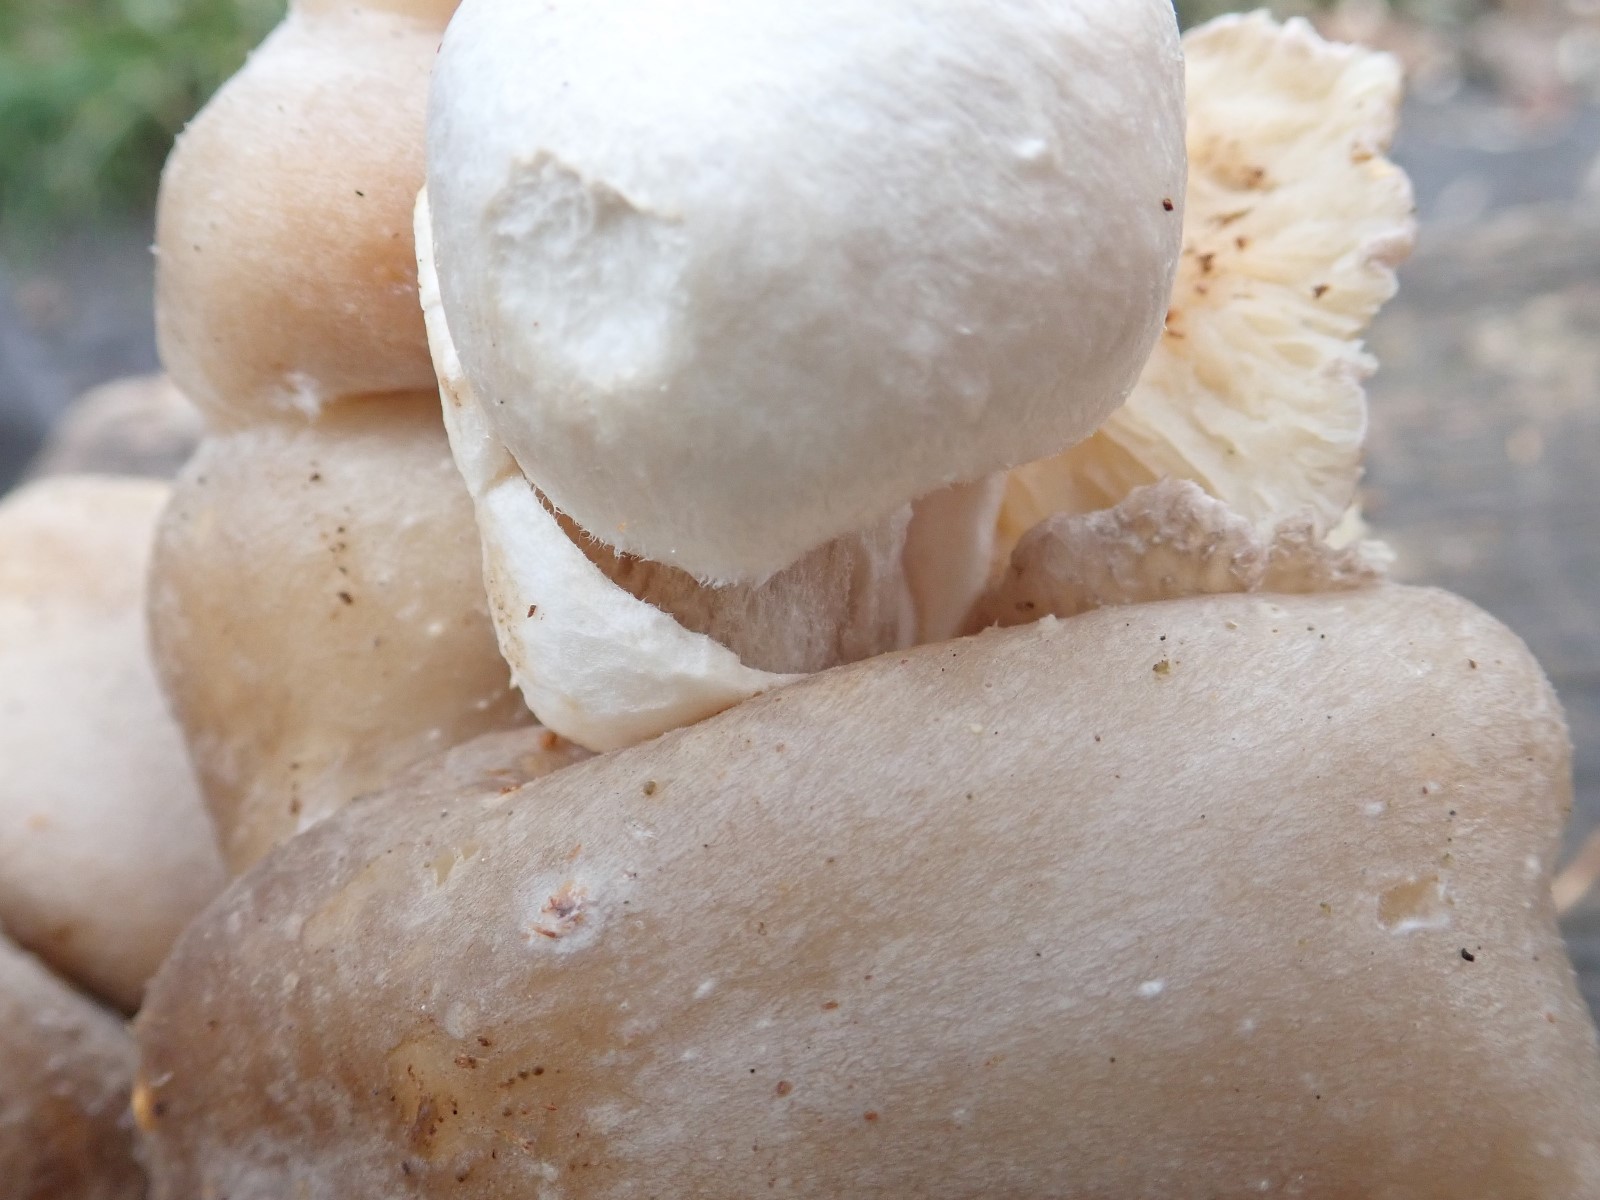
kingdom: Fungi
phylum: Basidiomycota
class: Agaricomycetes
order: Agaricales
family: Pluteaceae
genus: Volvariella
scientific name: Volvariella surrecta
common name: snyltende posesvamp
